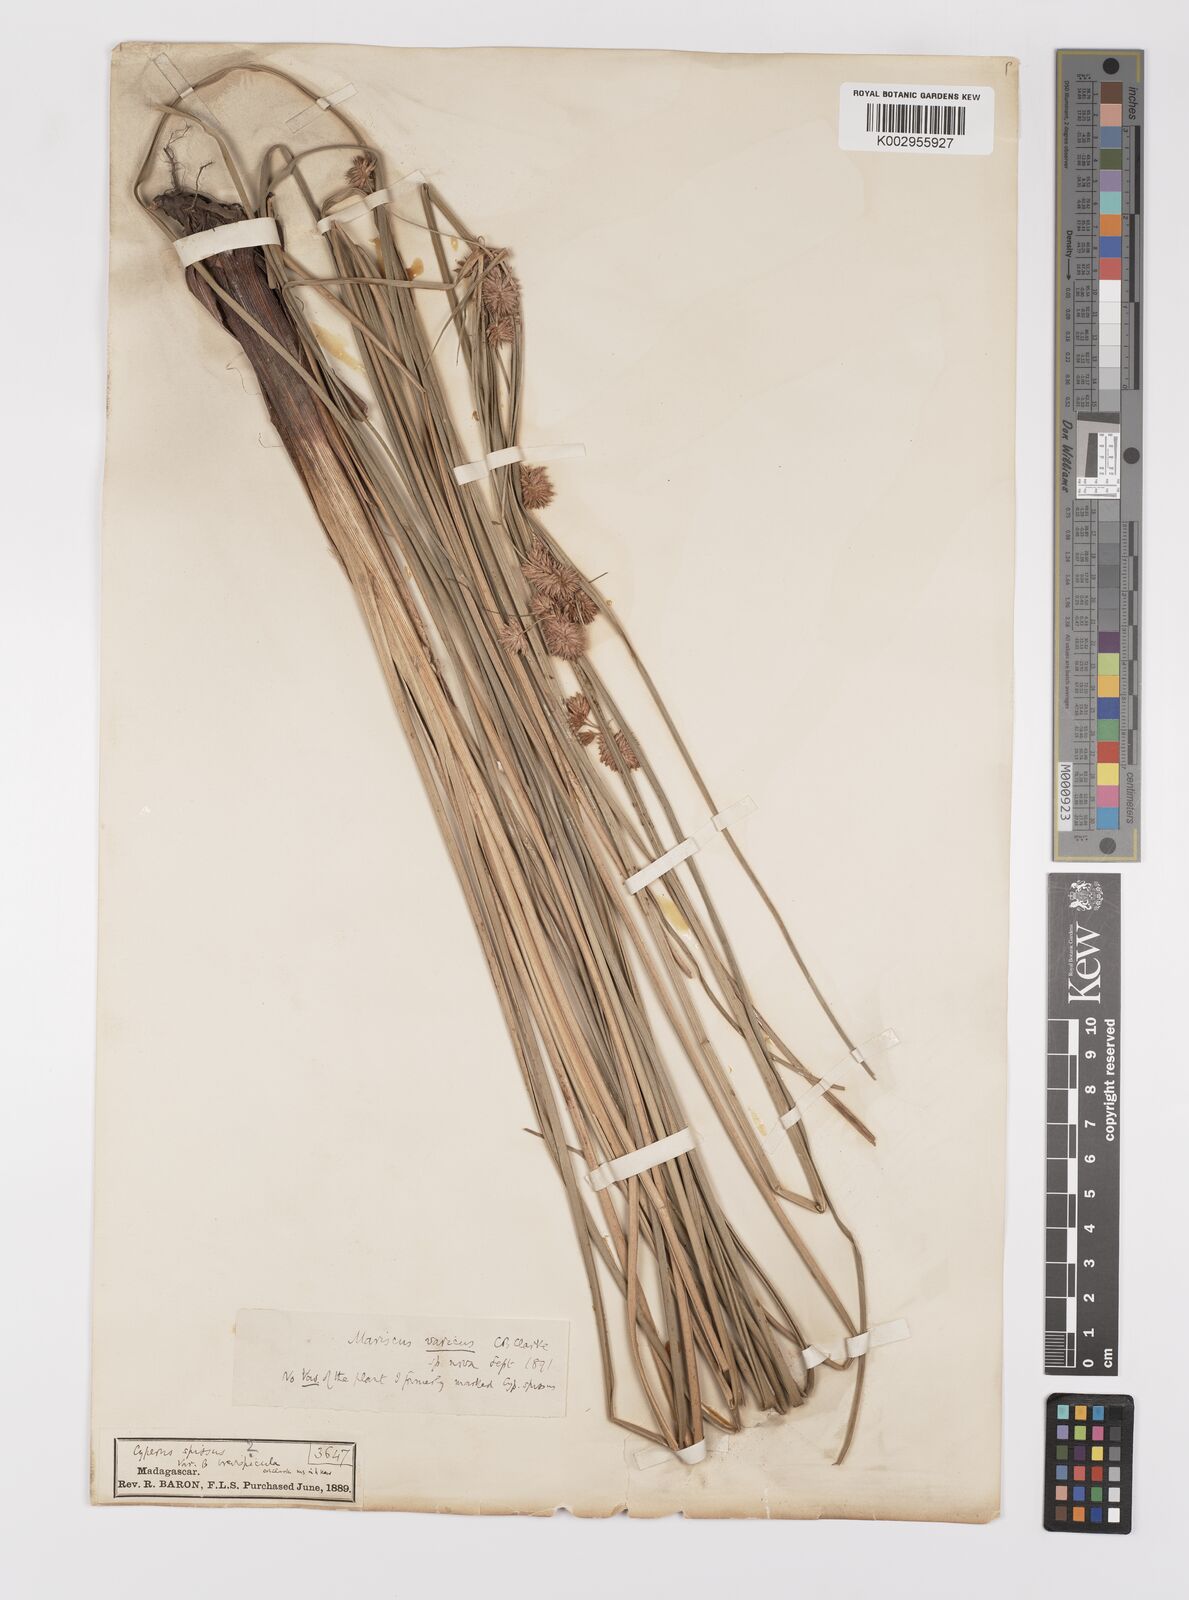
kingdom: Plantae
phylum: Tracheophyta
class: Liliopsida
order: Poales
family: Cyperaceae
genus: Cyperus
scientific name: Cyperus varicus
